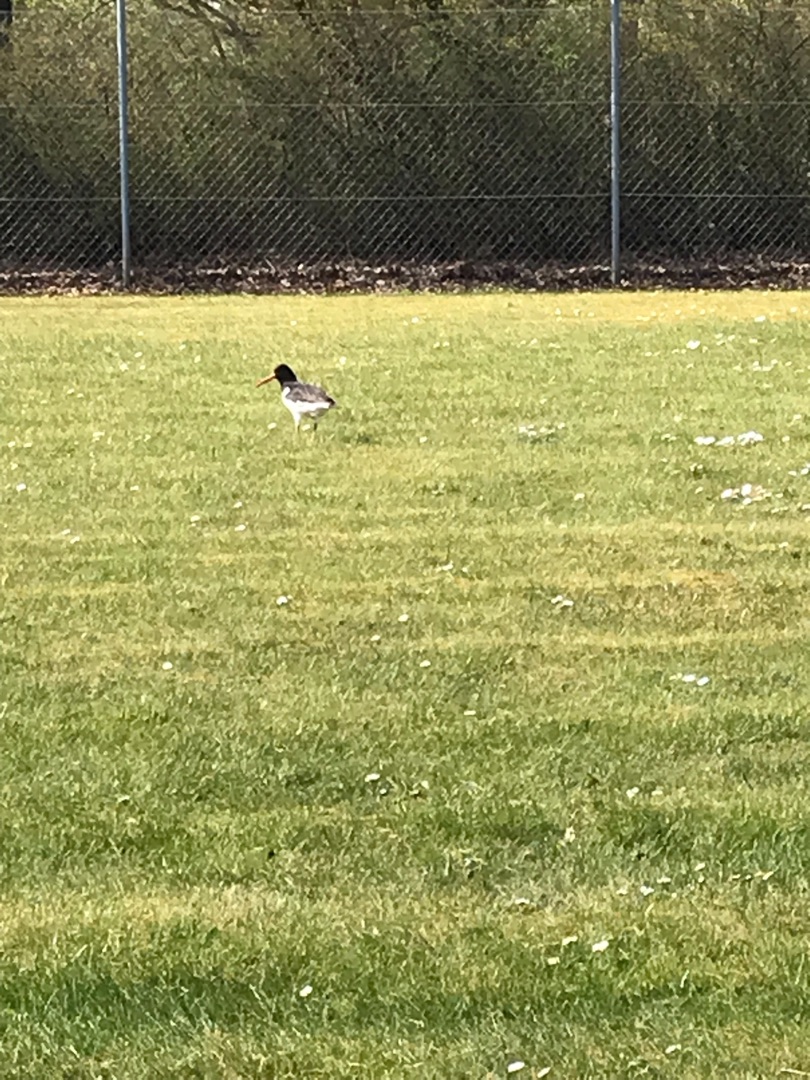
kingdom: Animalia
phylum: Chordata
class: Aves
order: Charadriiformes
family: Haematopodidae
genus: Haematopus
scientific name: Haematopus ostralegus
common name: Strandskade
